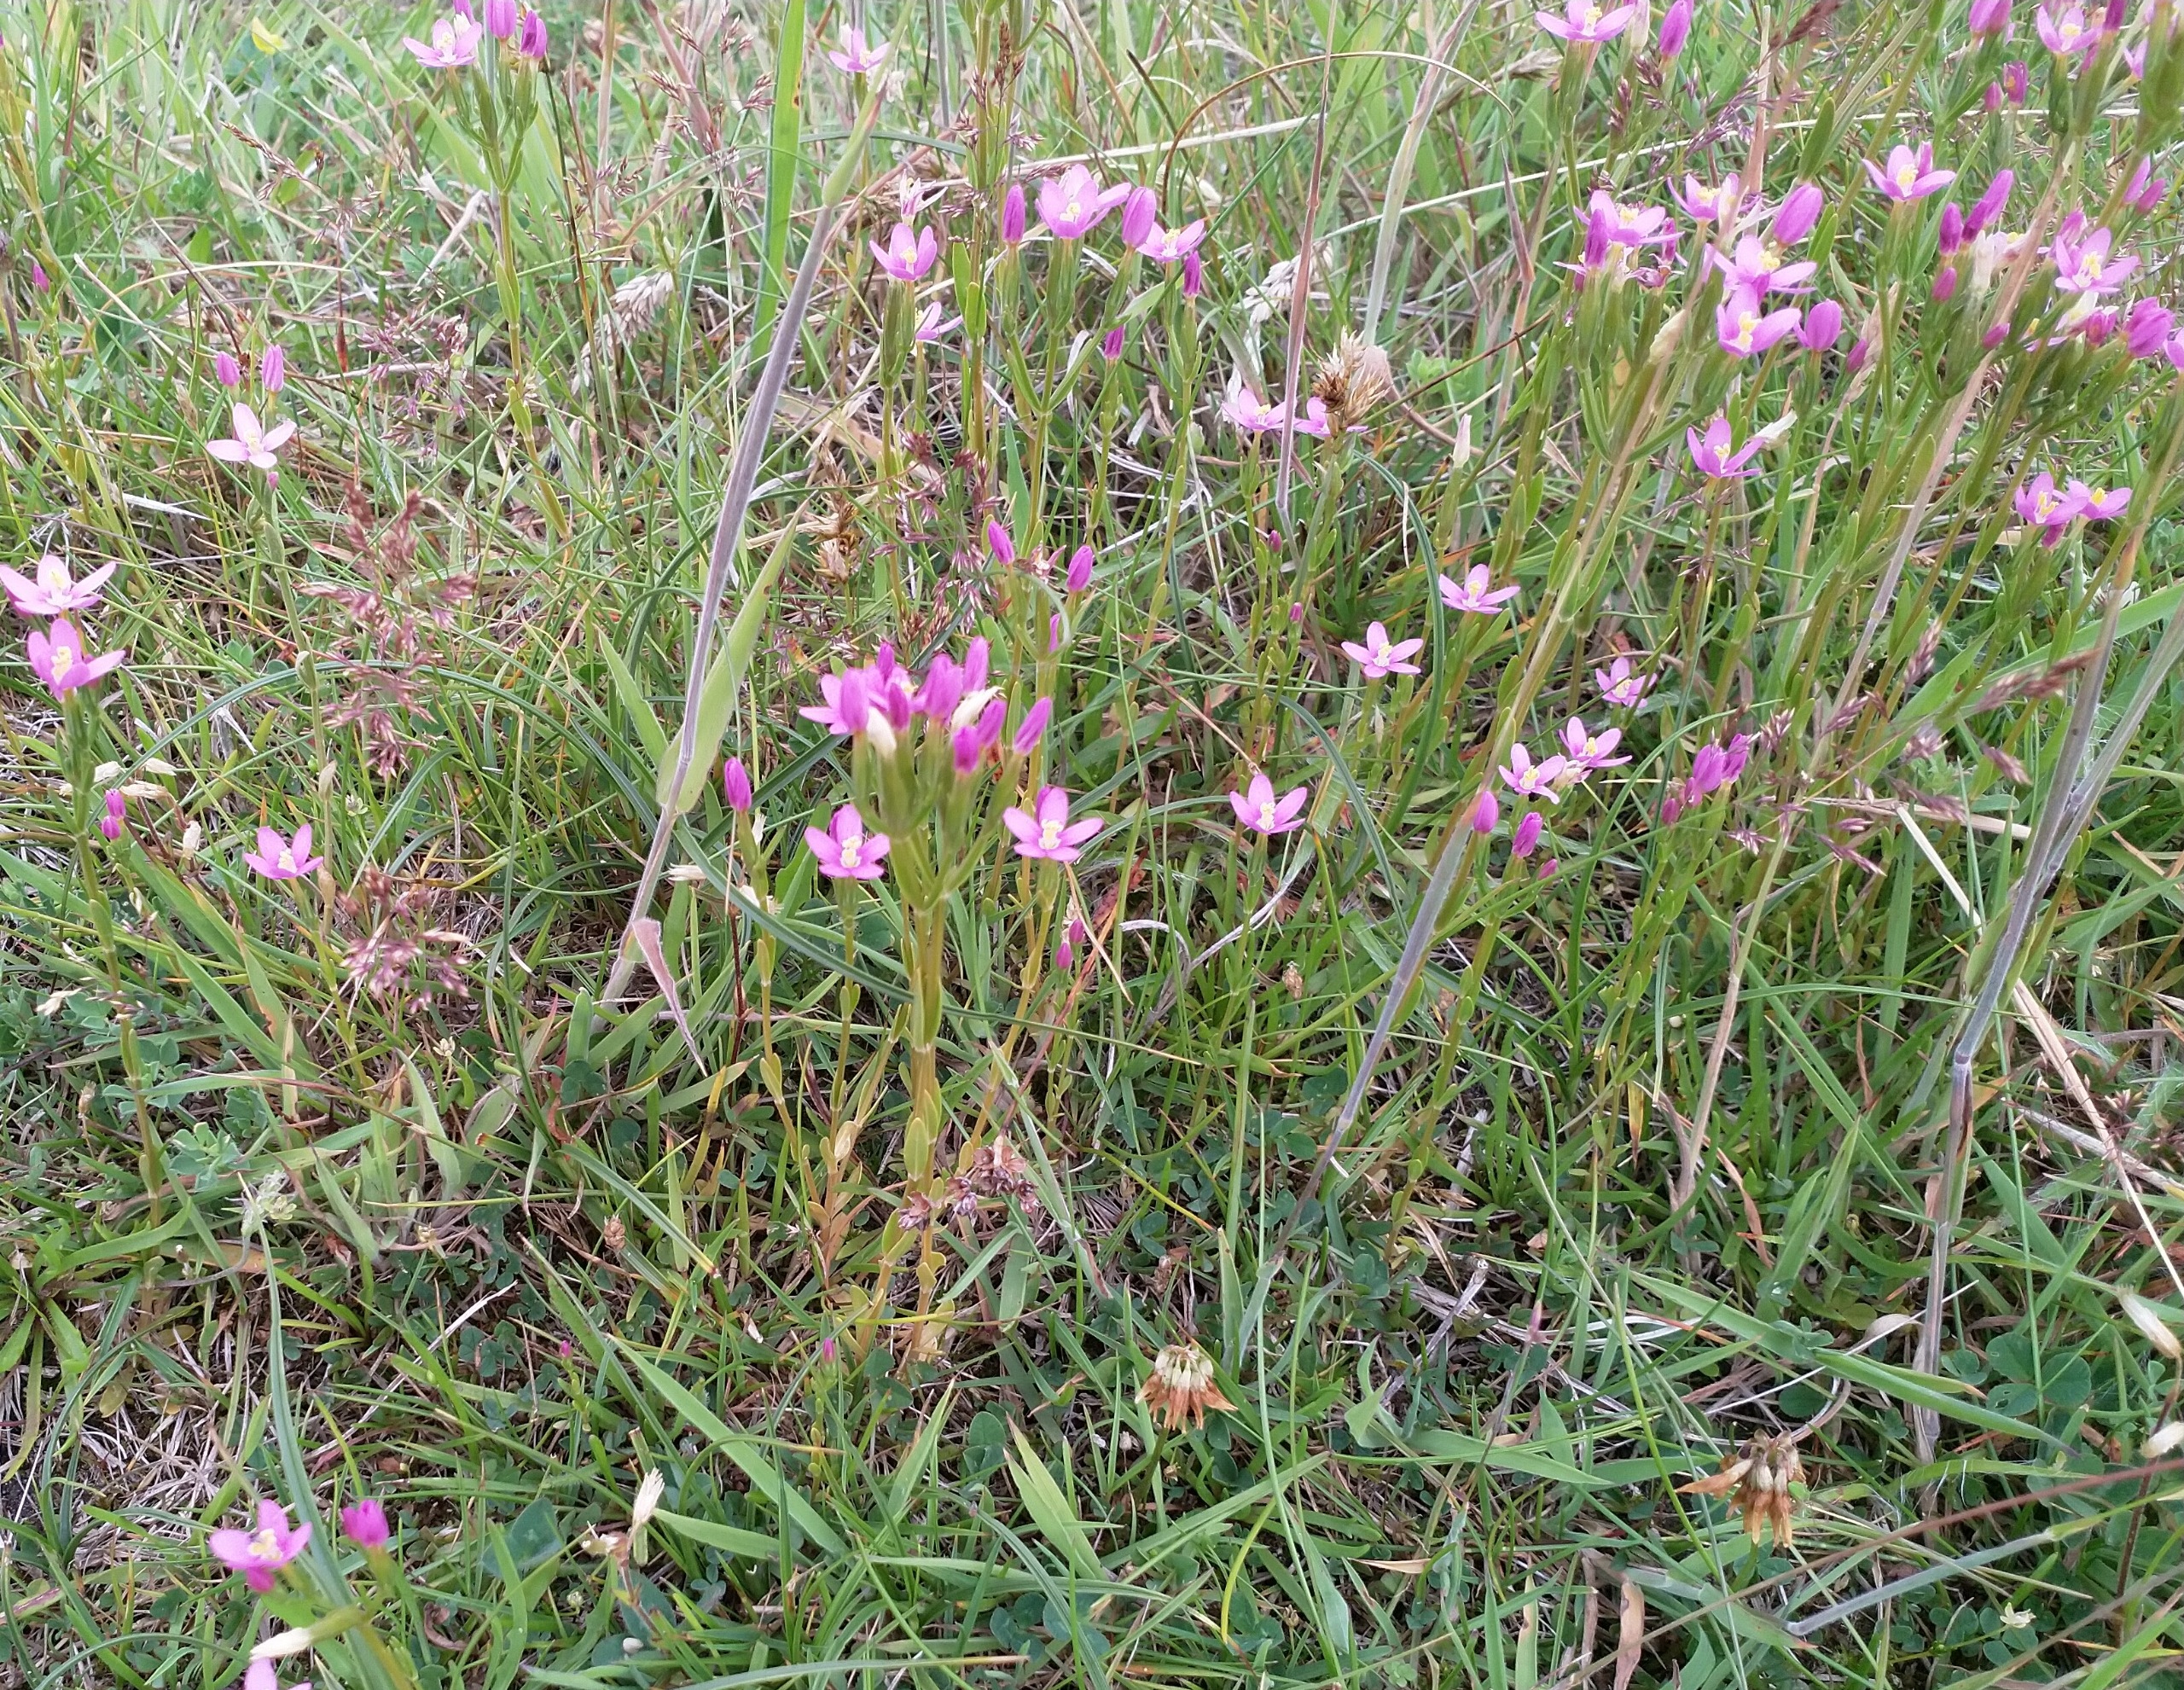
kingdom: Plantae
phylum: Tracheophyta
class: Magnoliopsida
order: Gentianales
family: Gentianaceae
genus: Centaurium
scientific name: Centaurium littorale
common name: Strand-tusindgylden
